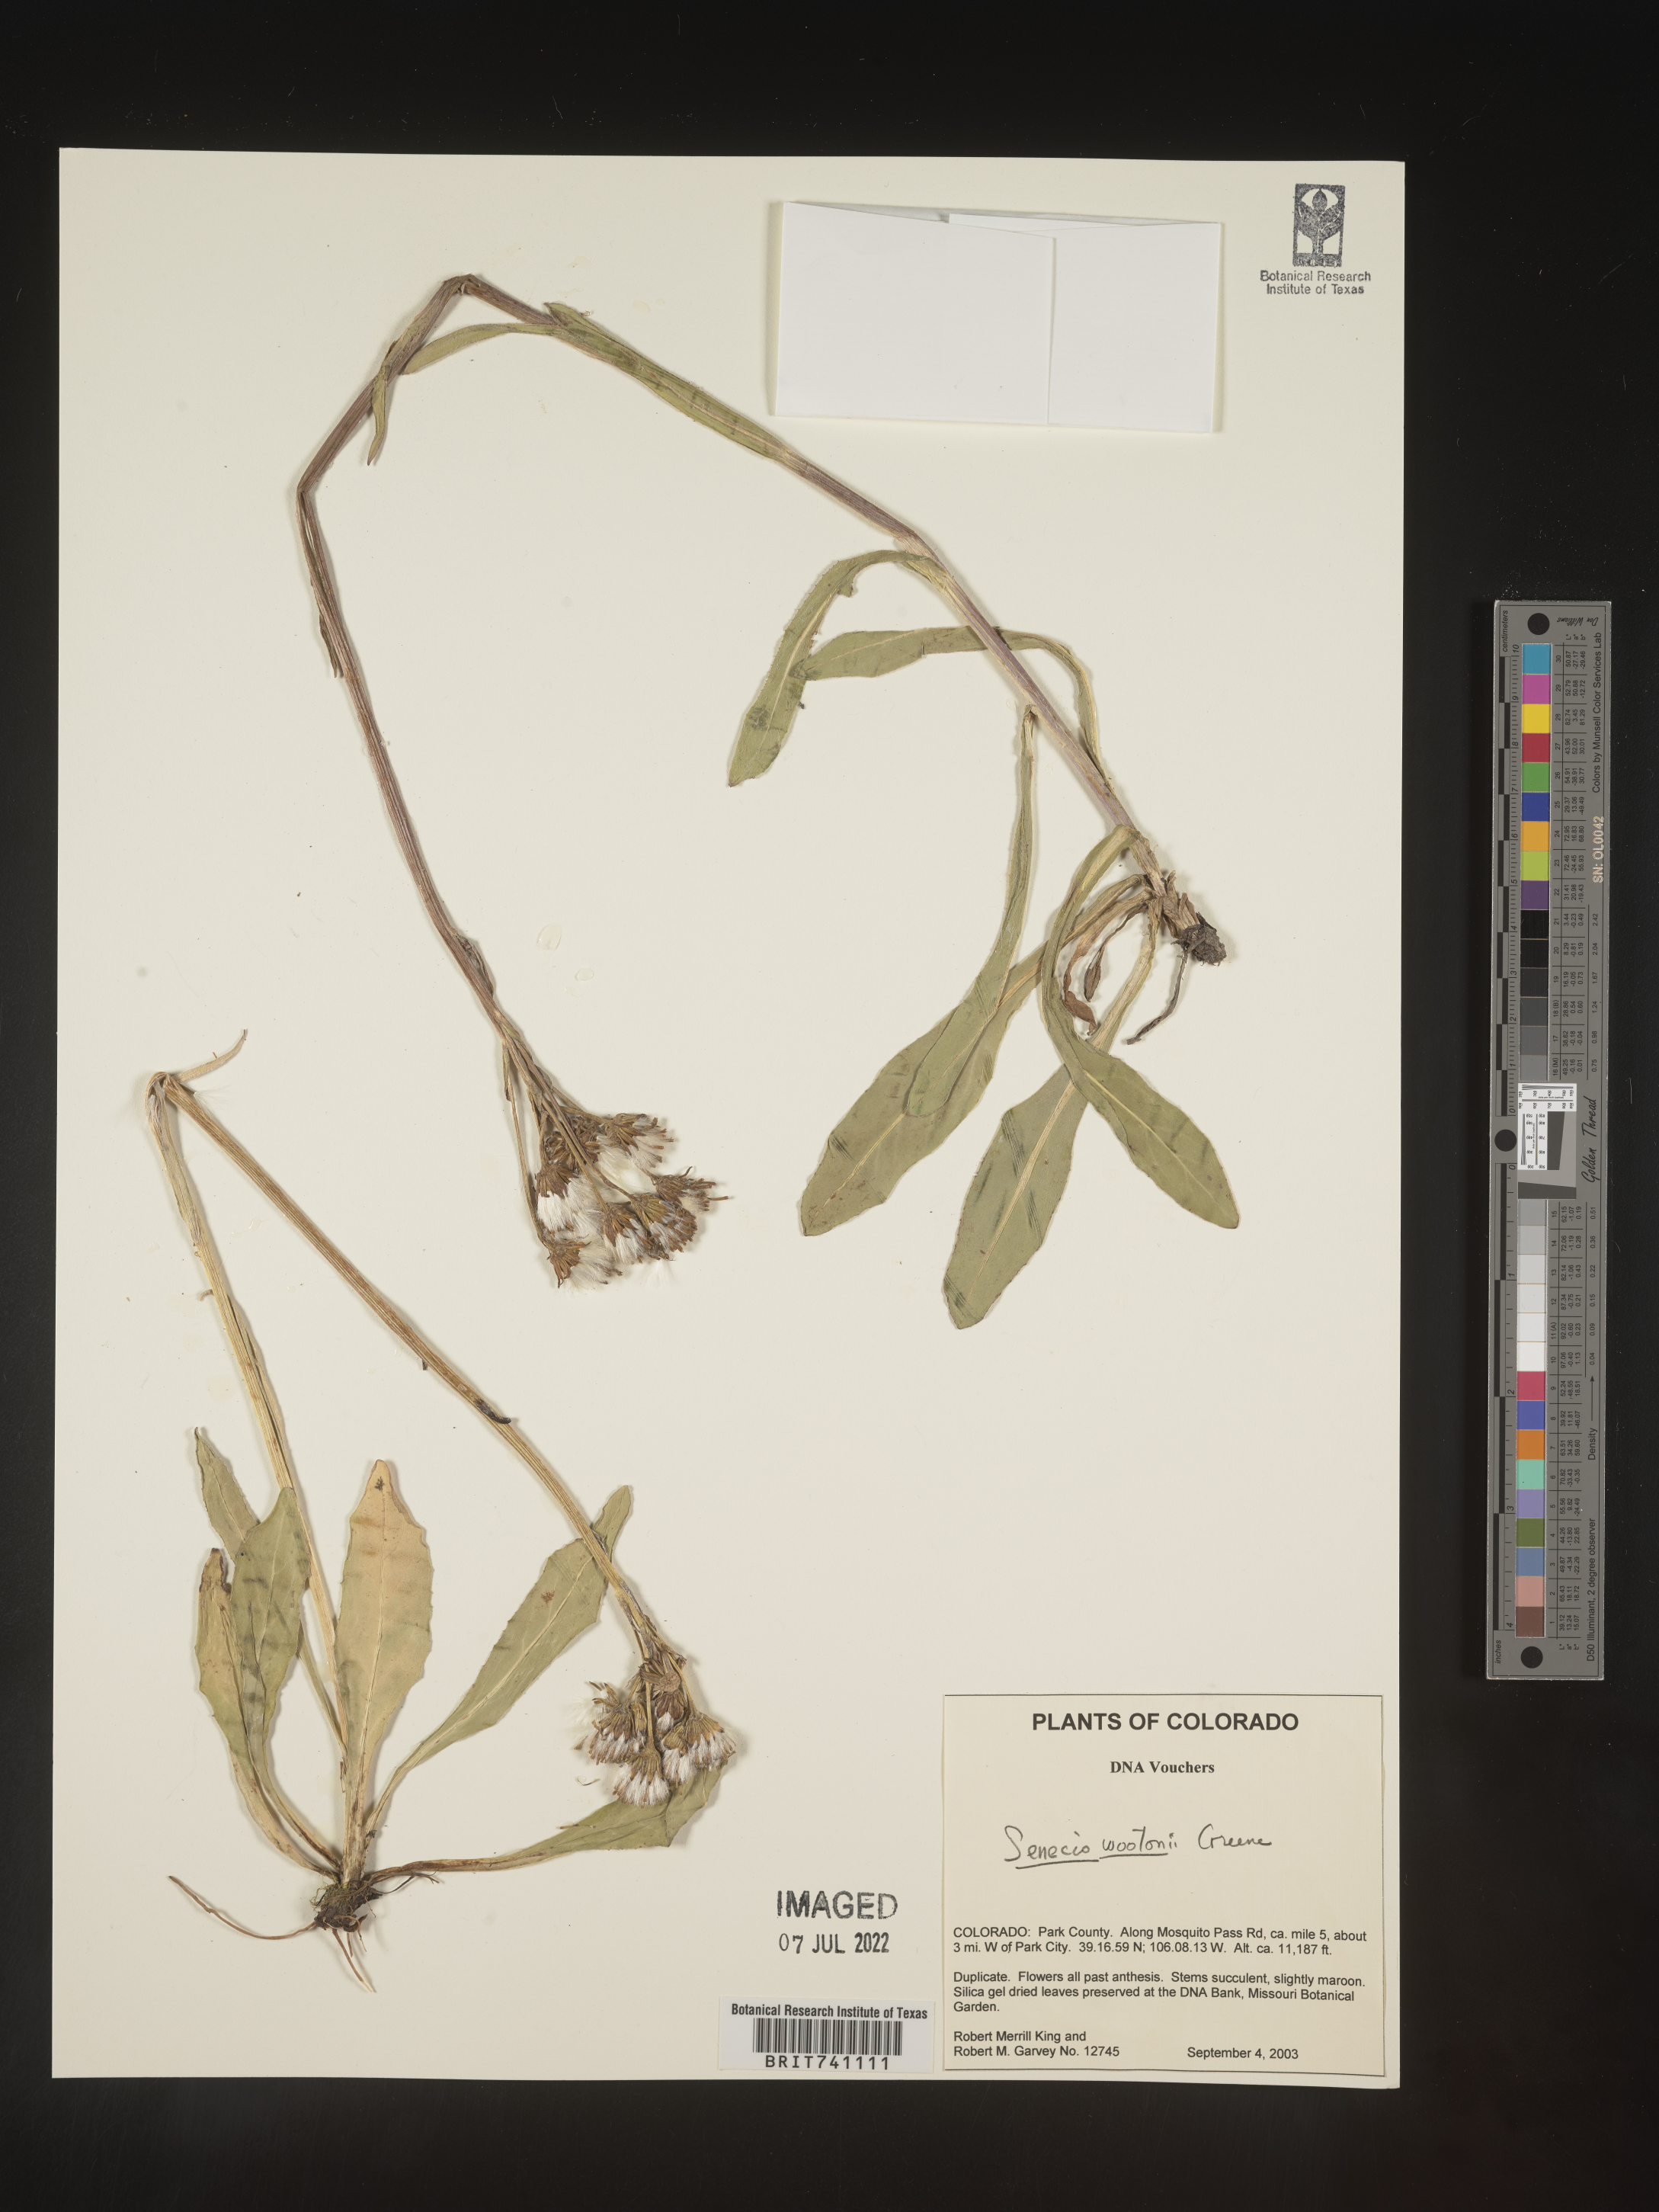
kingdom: Plantae
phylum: Tracheophyta
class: Magnoliopsida
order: Asterales
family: Asteraceae
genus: Senecio
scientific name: Senecio wootonii
